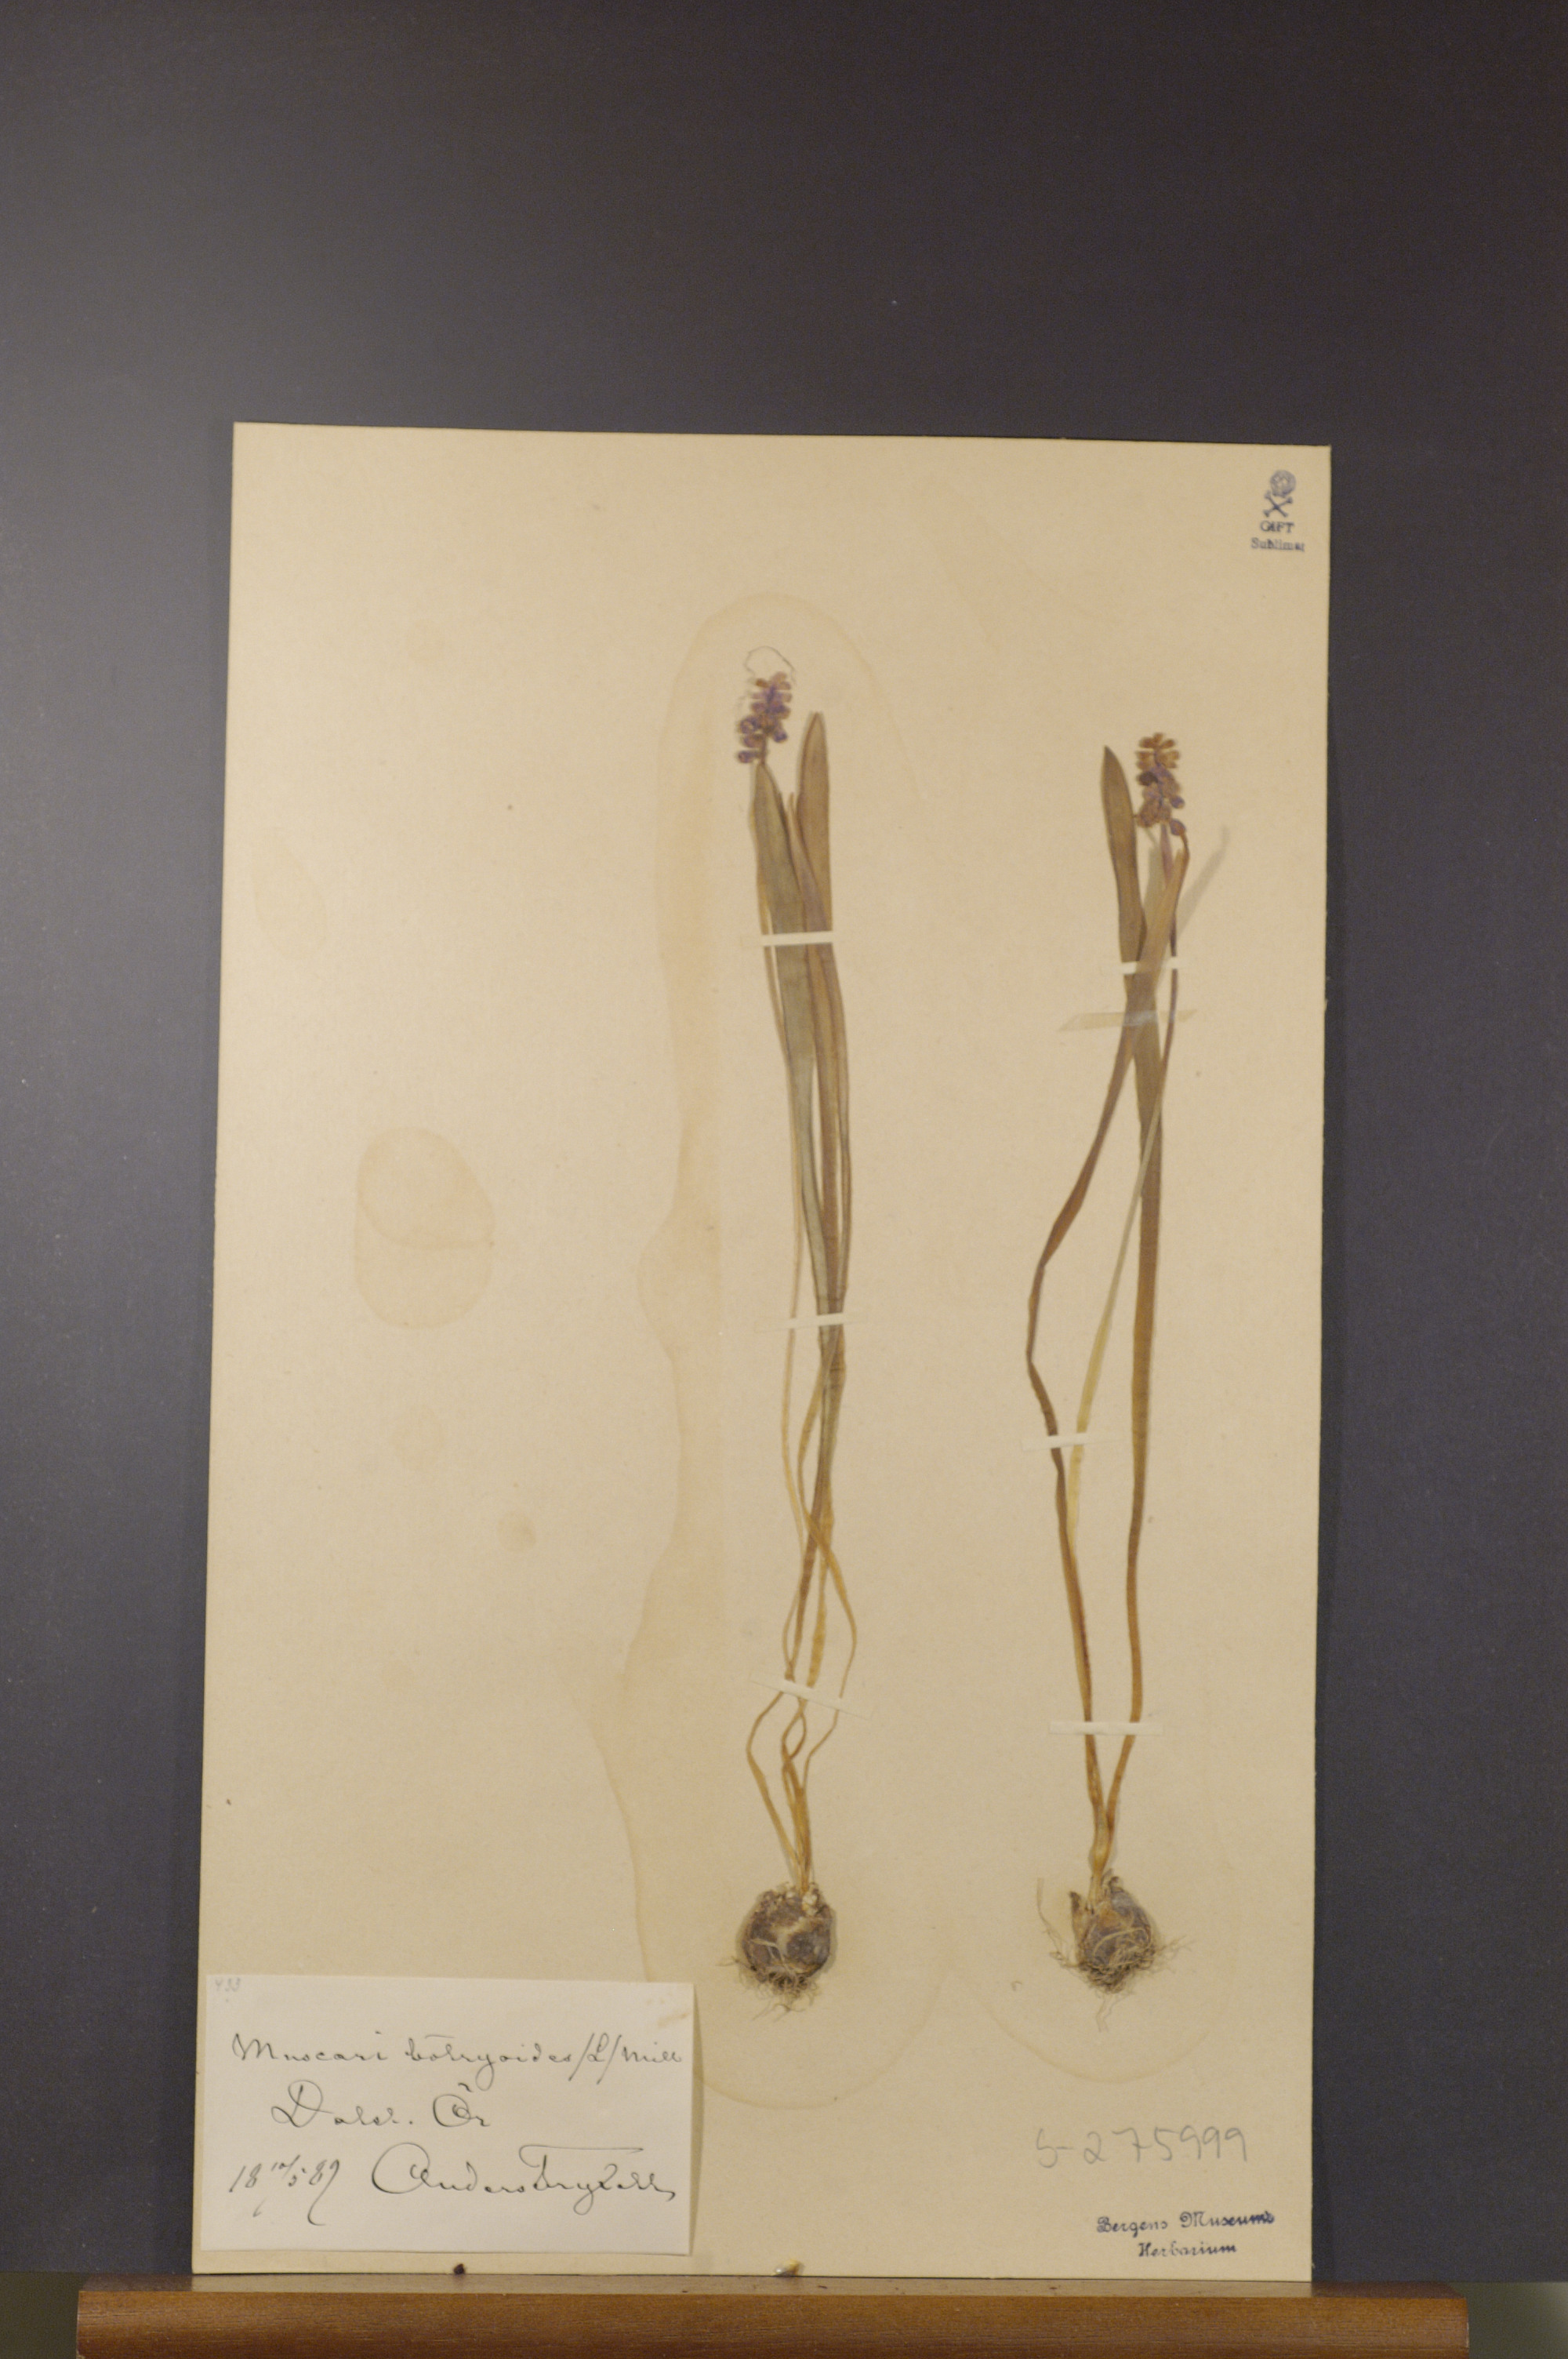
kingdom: Plantae
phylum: Tracheophyta
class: Liliopsida
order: Asparagales
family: Asparagaceae
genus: Muscari
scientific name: Muscari botryoides
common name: Compact grape-hyacinth
